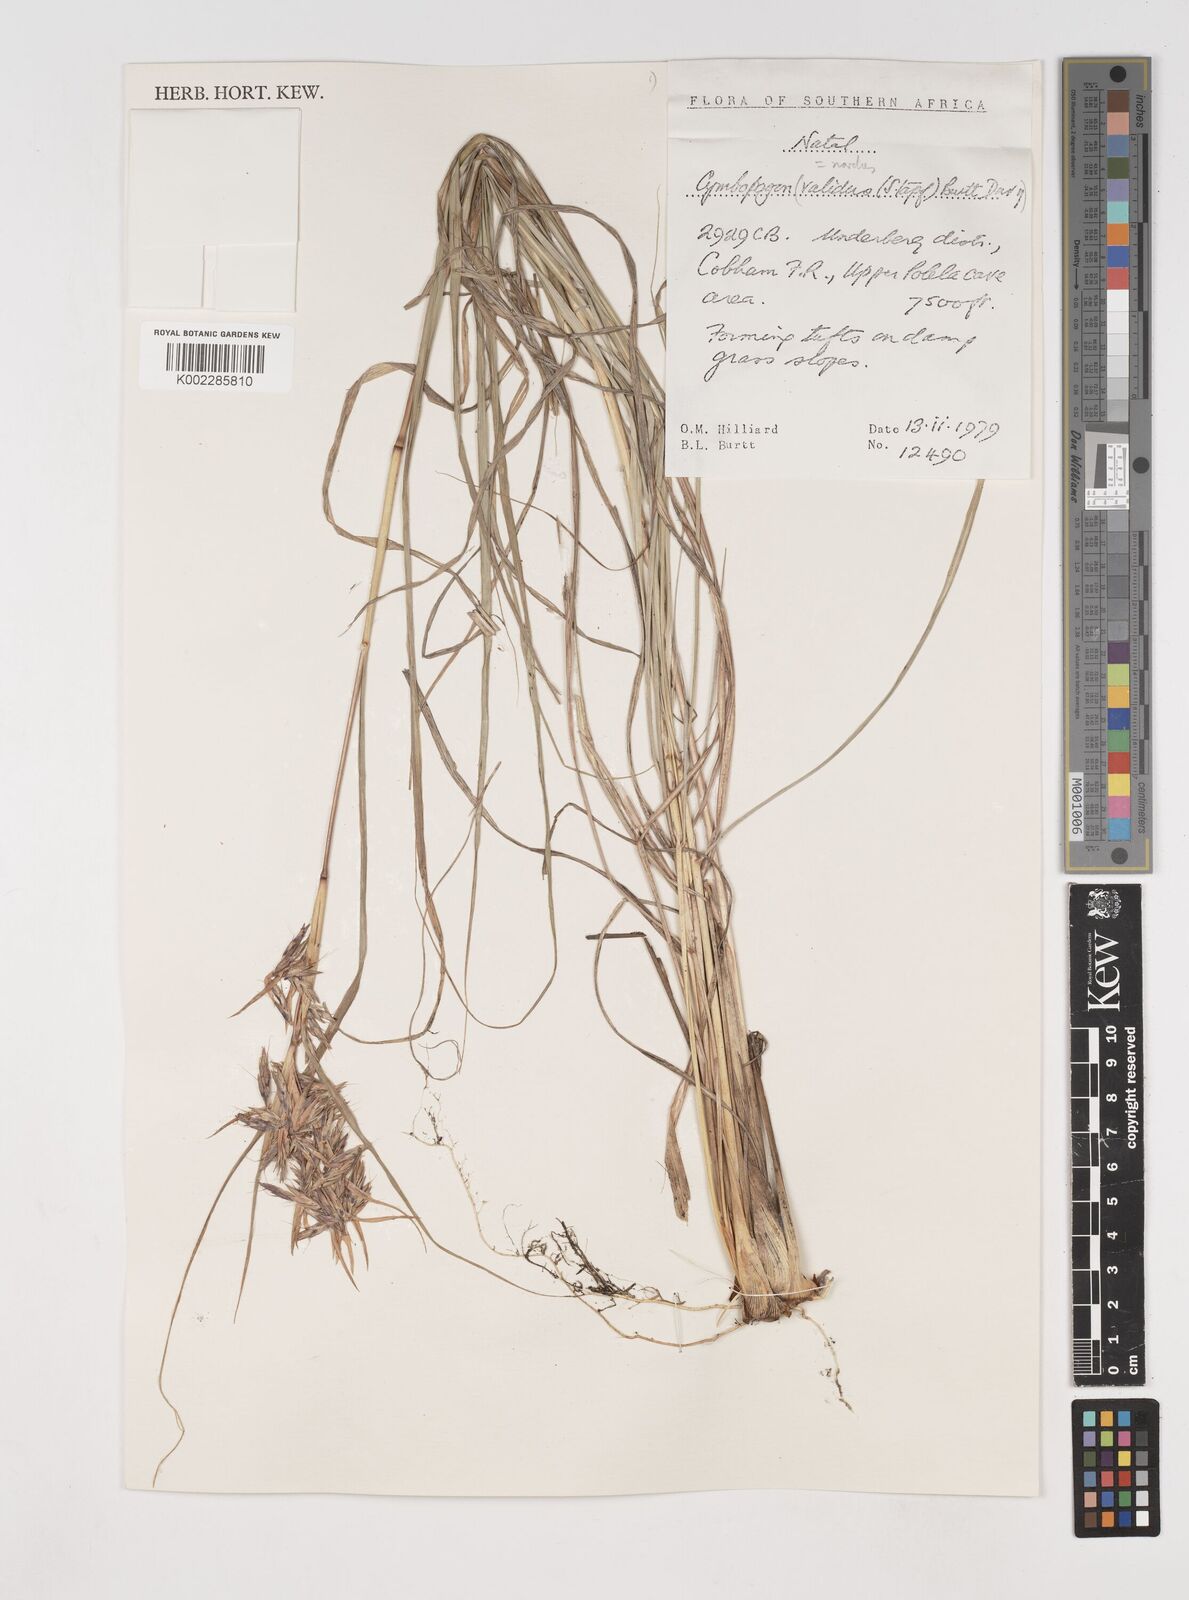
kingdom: Plantae
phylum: Tracheophyta
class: Liliopsida
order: Poales
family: Poaceae
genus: Cymbopogon
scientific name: Cymbopogon nardus
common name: Giant turpentine grass
